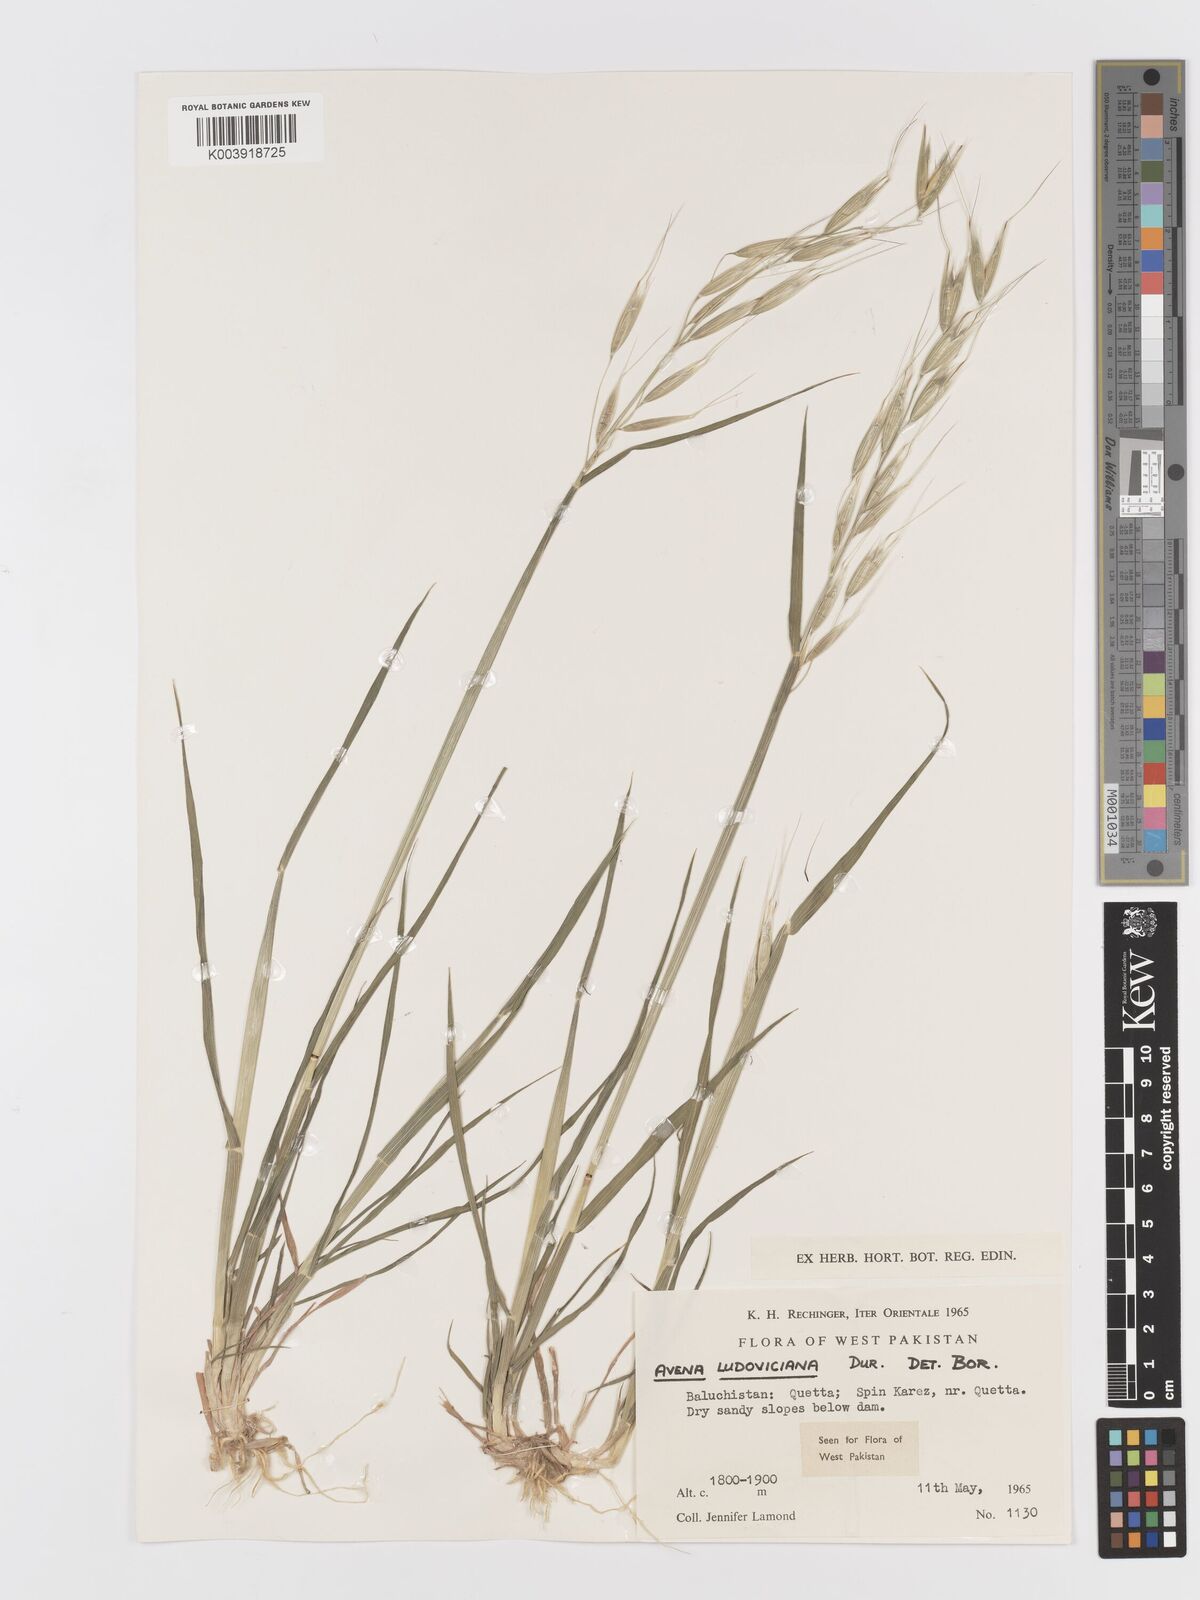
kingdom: Plantae
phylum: Tracheophyta
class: Liliopsida
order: Poales
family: Poaceae
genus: Avena
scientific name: Avena sterilis
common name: Animated oat
